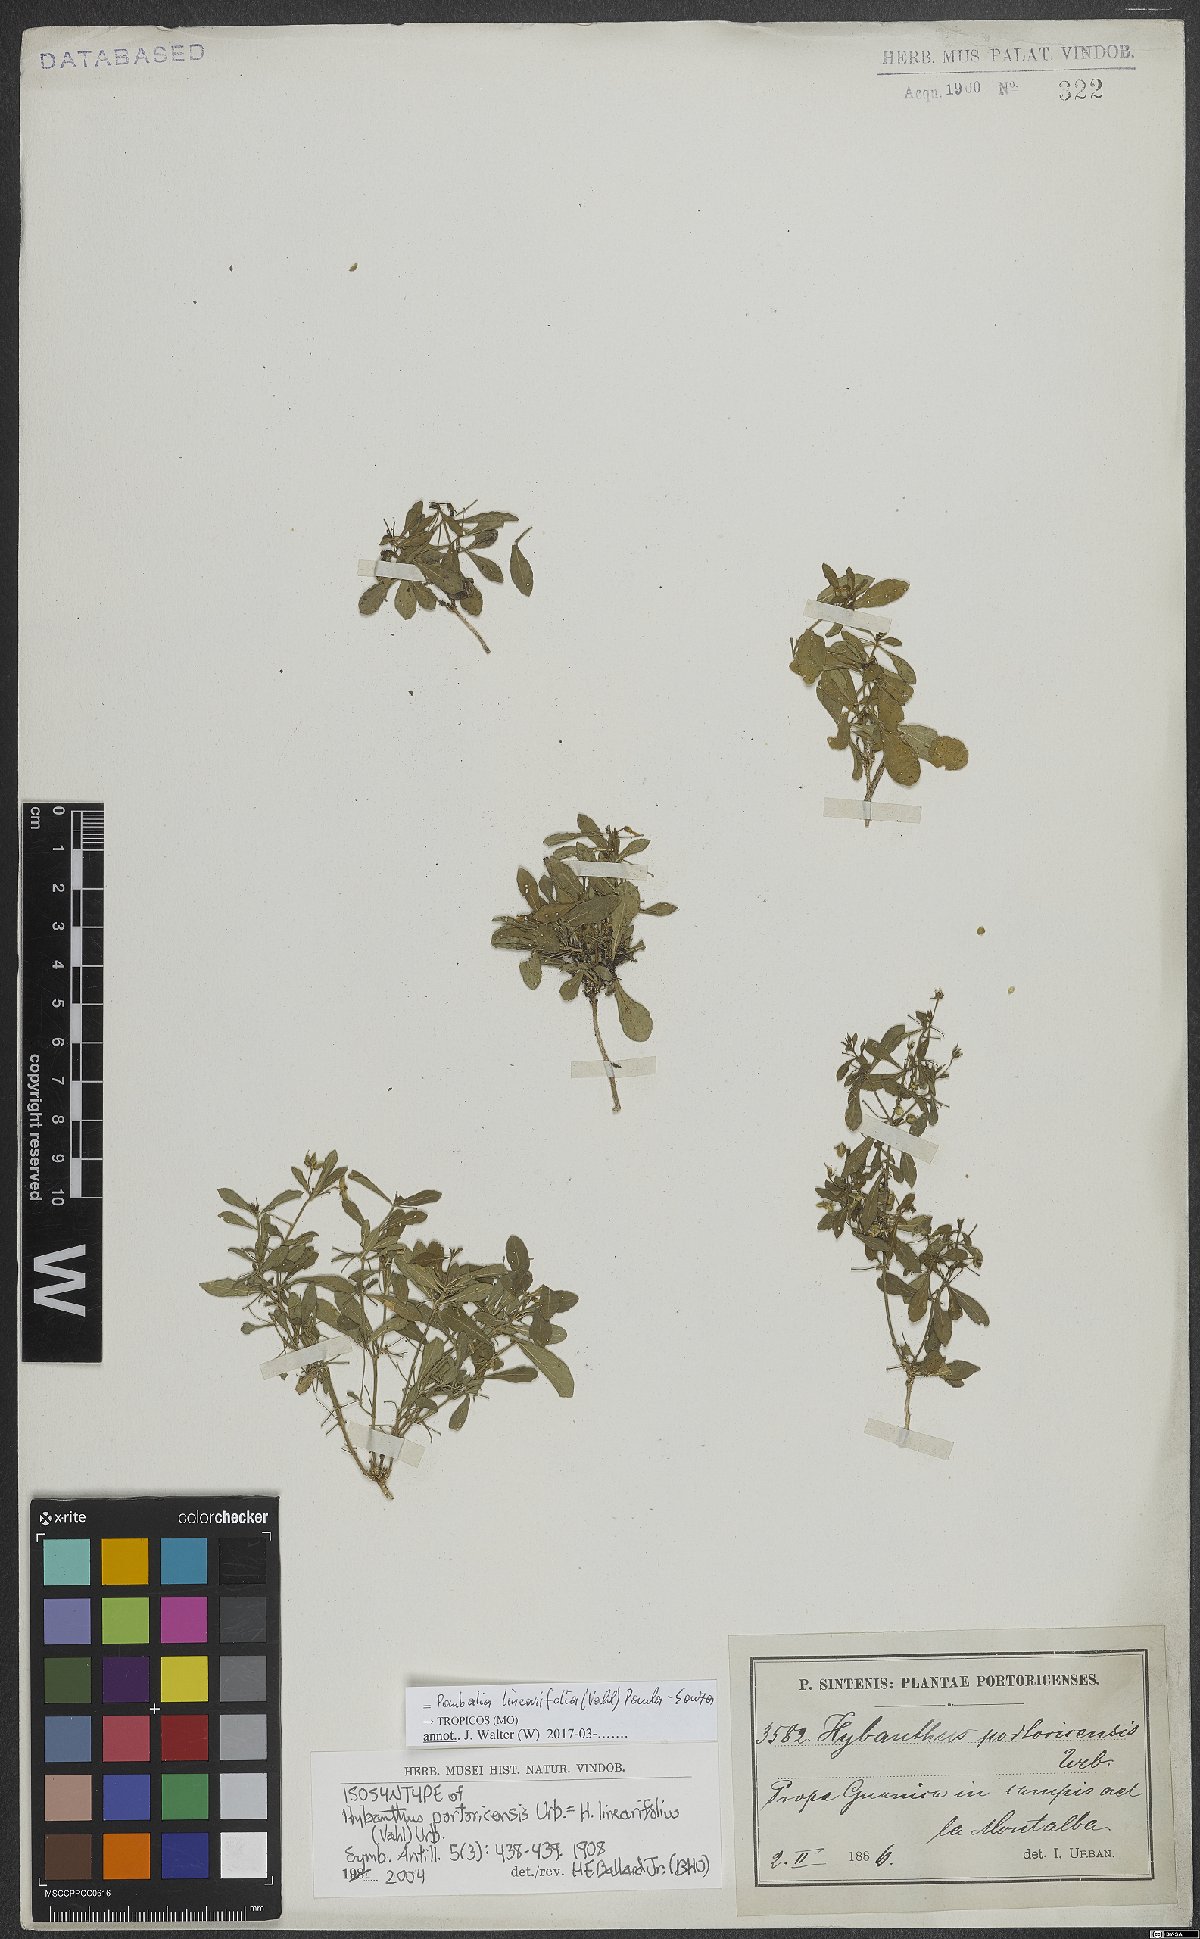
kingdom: Plantae
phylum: Tracheophyta
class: Magnoliopsida
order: Malpighiales
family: Violaceae
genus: Pombalia
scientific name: Pombalia linearifolia
